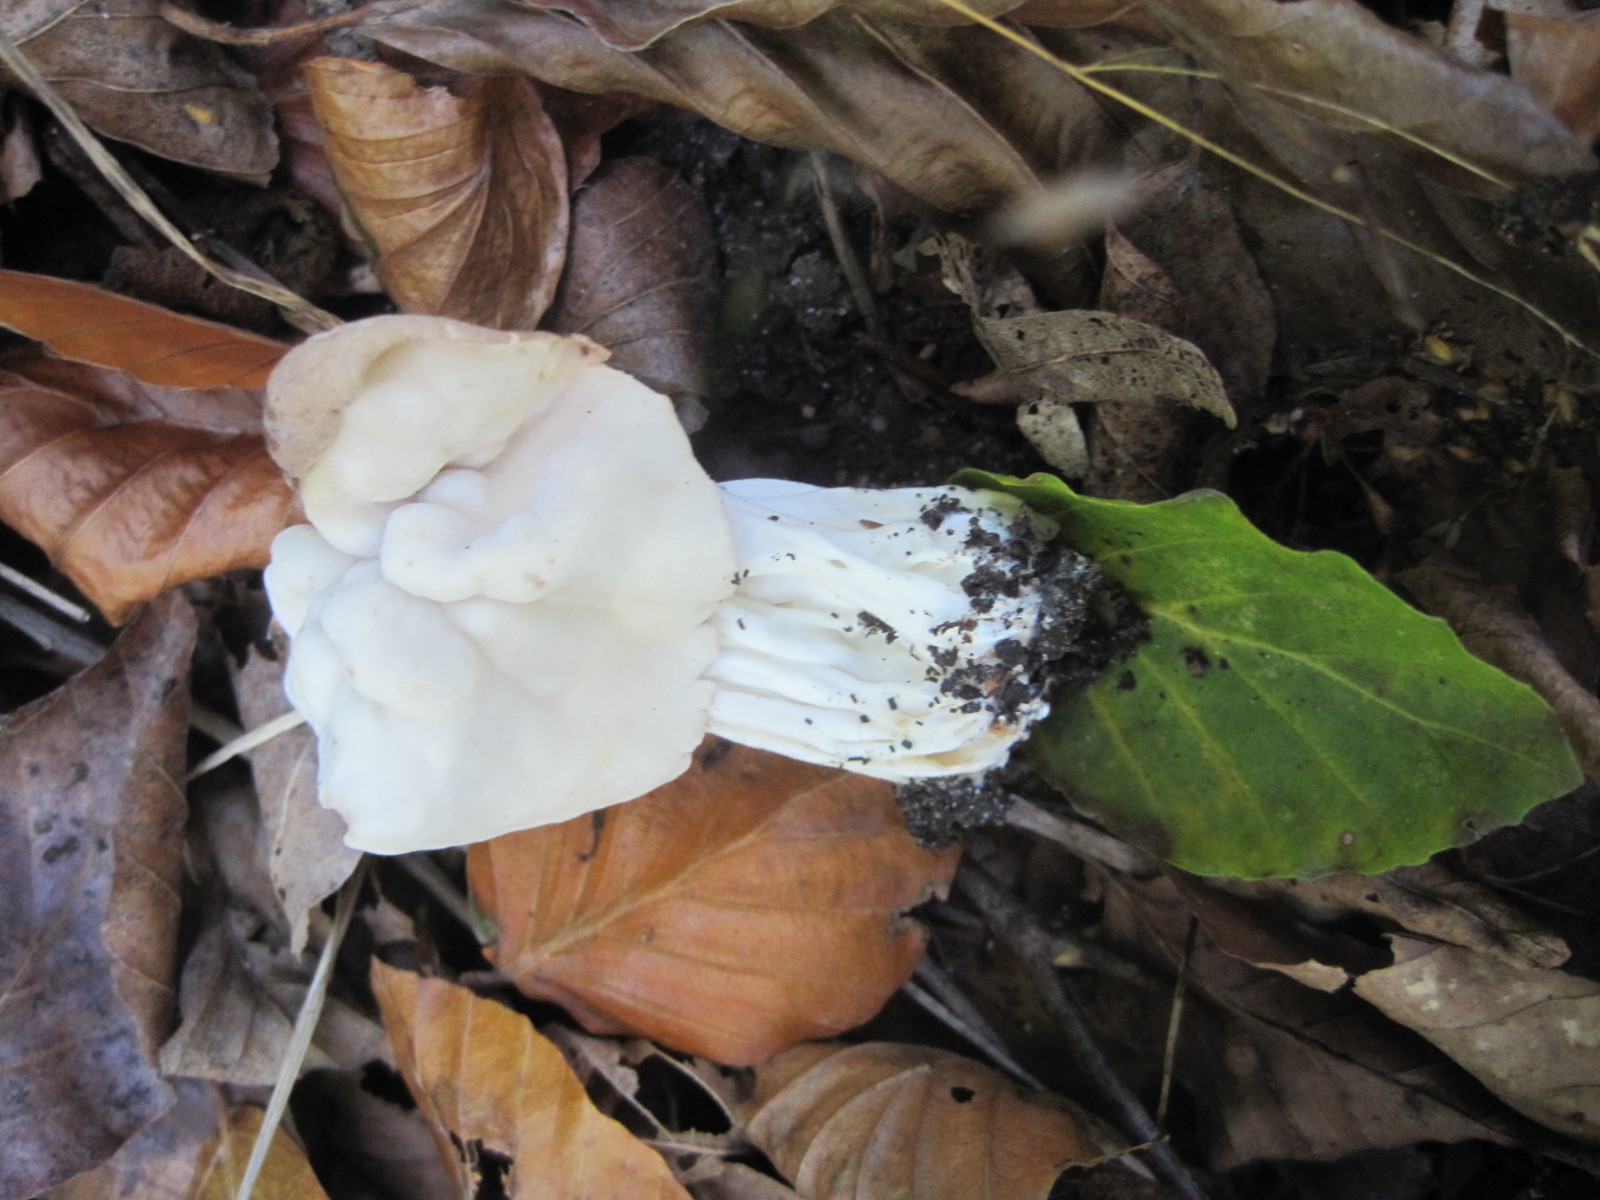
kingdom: Fungi
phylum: Ascomycota
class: Pezizomycetes
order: Pezizales
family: Helvellaceae
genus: Helvella
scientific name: Helvella crispa
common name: kruset foldhat
